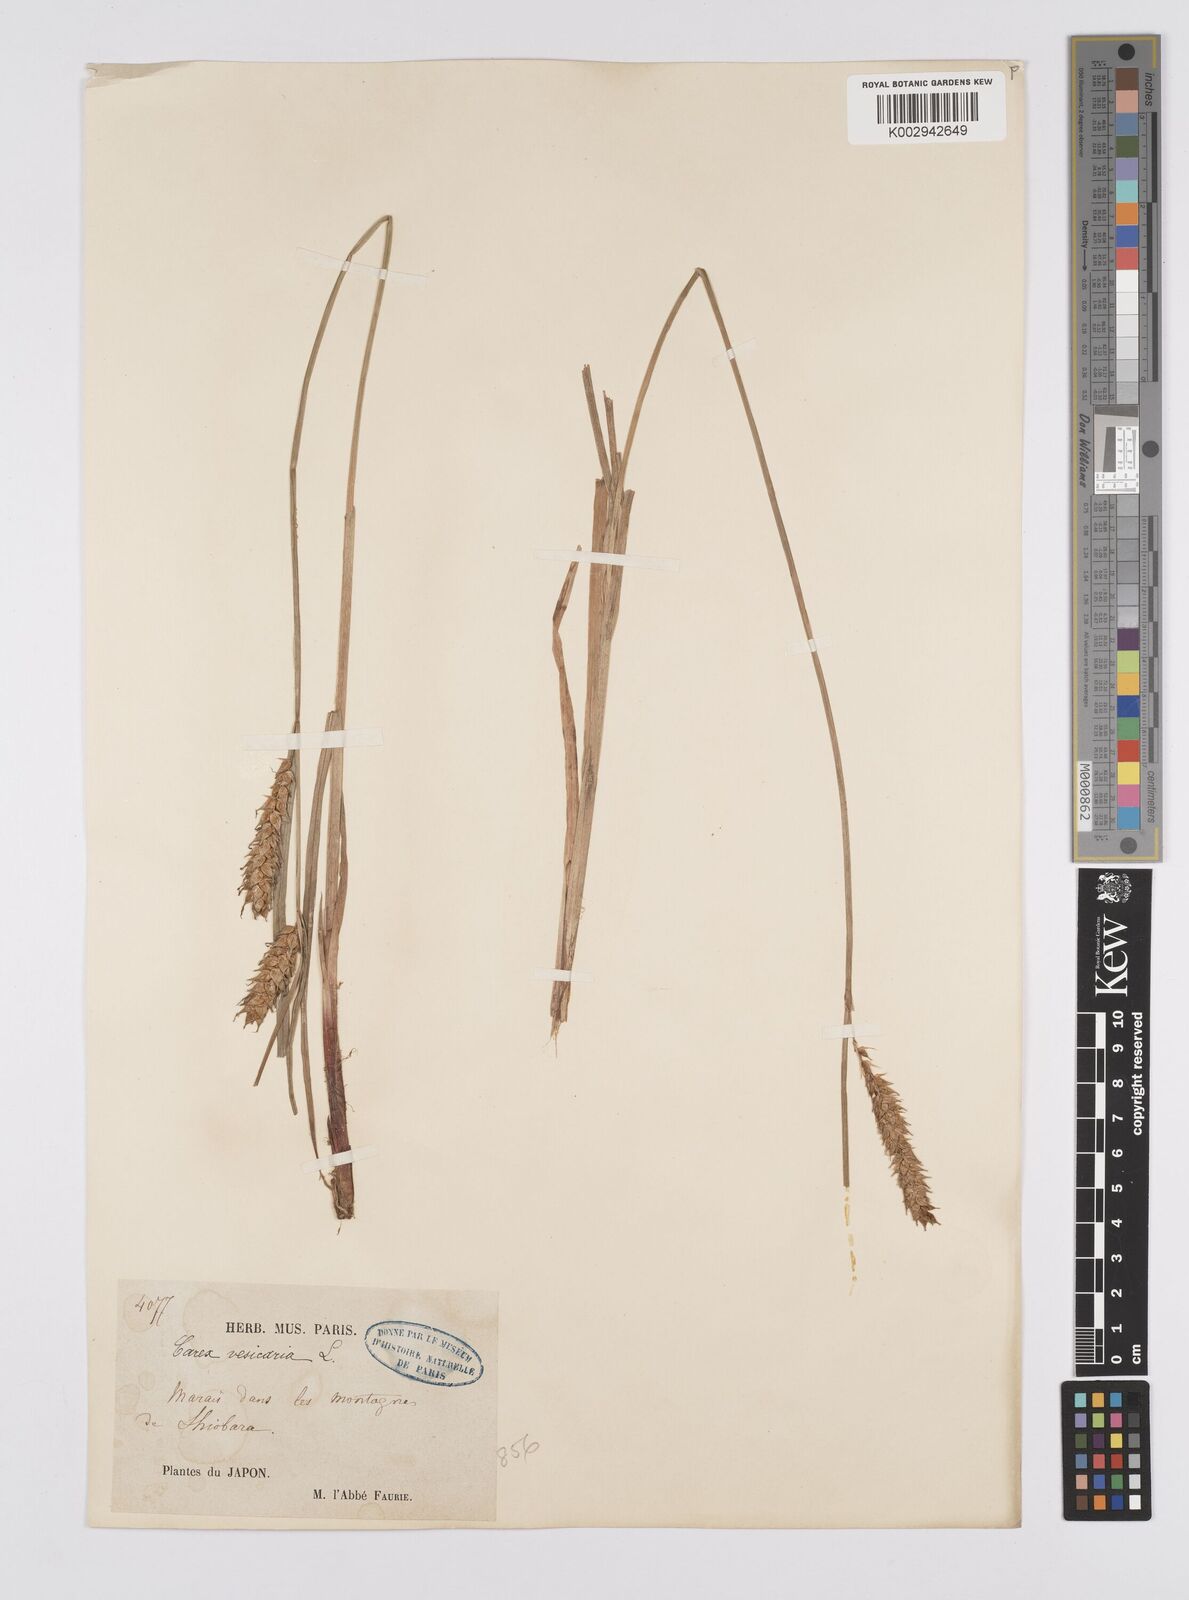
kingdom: Plantae
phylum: Tracheophyta
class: Liliopsida
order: Poales
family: Cyperaceae
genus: Carex
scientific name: Carex vesicaria
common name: Bladder-sedge
